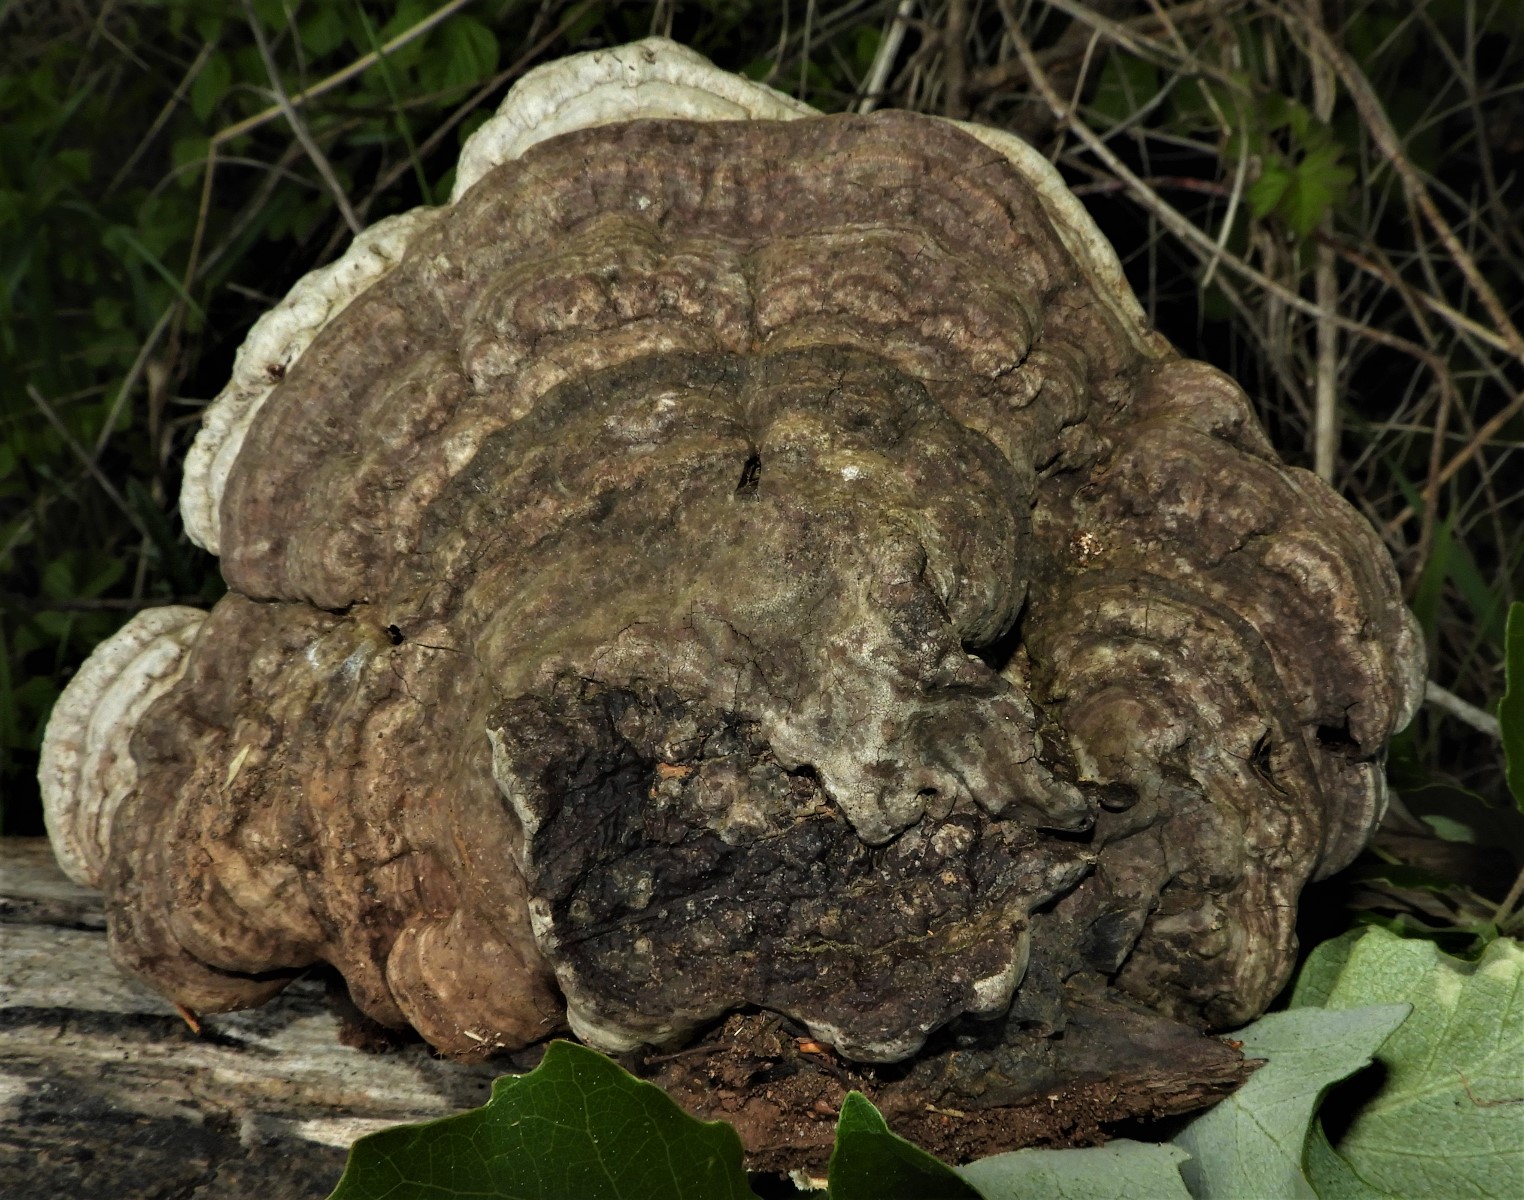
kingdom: Fungi
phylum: Basidiomycota
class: Agaricomycetes
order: Polyporales
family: Polyporaceae
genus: Ganoderma
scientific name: Ganoderma applanatum
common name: flad lakporesvamp
